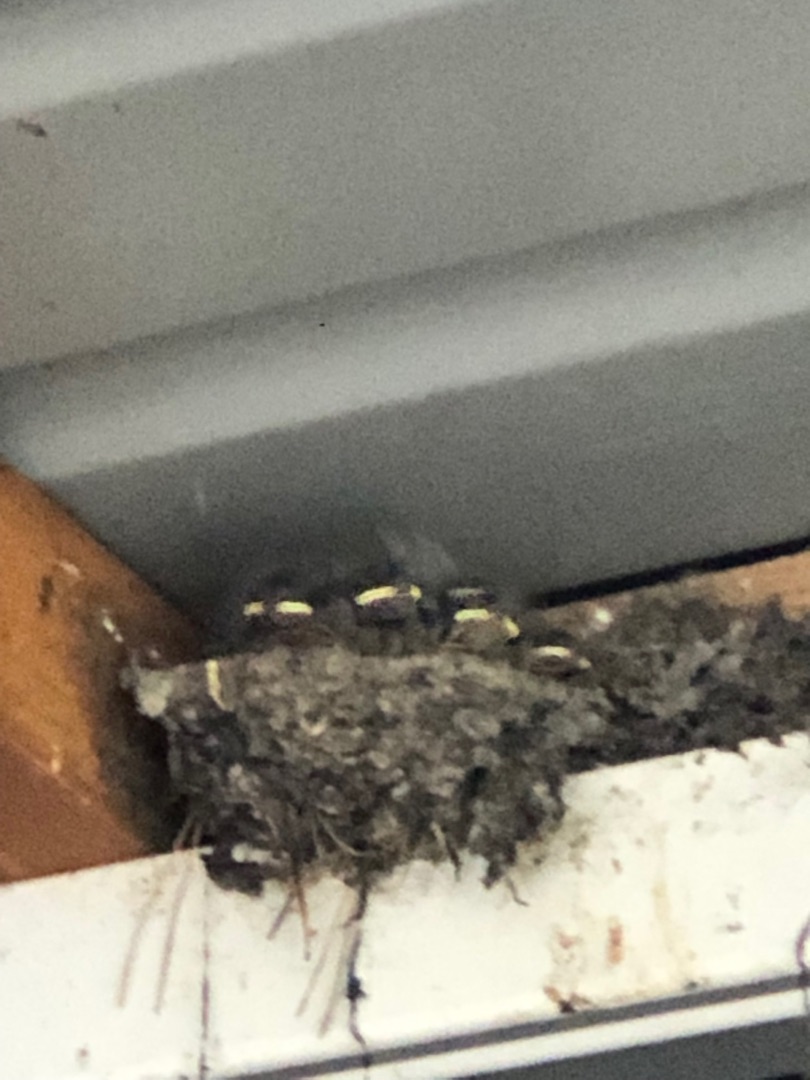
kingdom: Animalia
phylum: Chordata
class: Aves
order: Passeriformes
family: Hirundinidae
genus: Hirundo
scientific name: Hirundo rustica
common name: Landsvale
